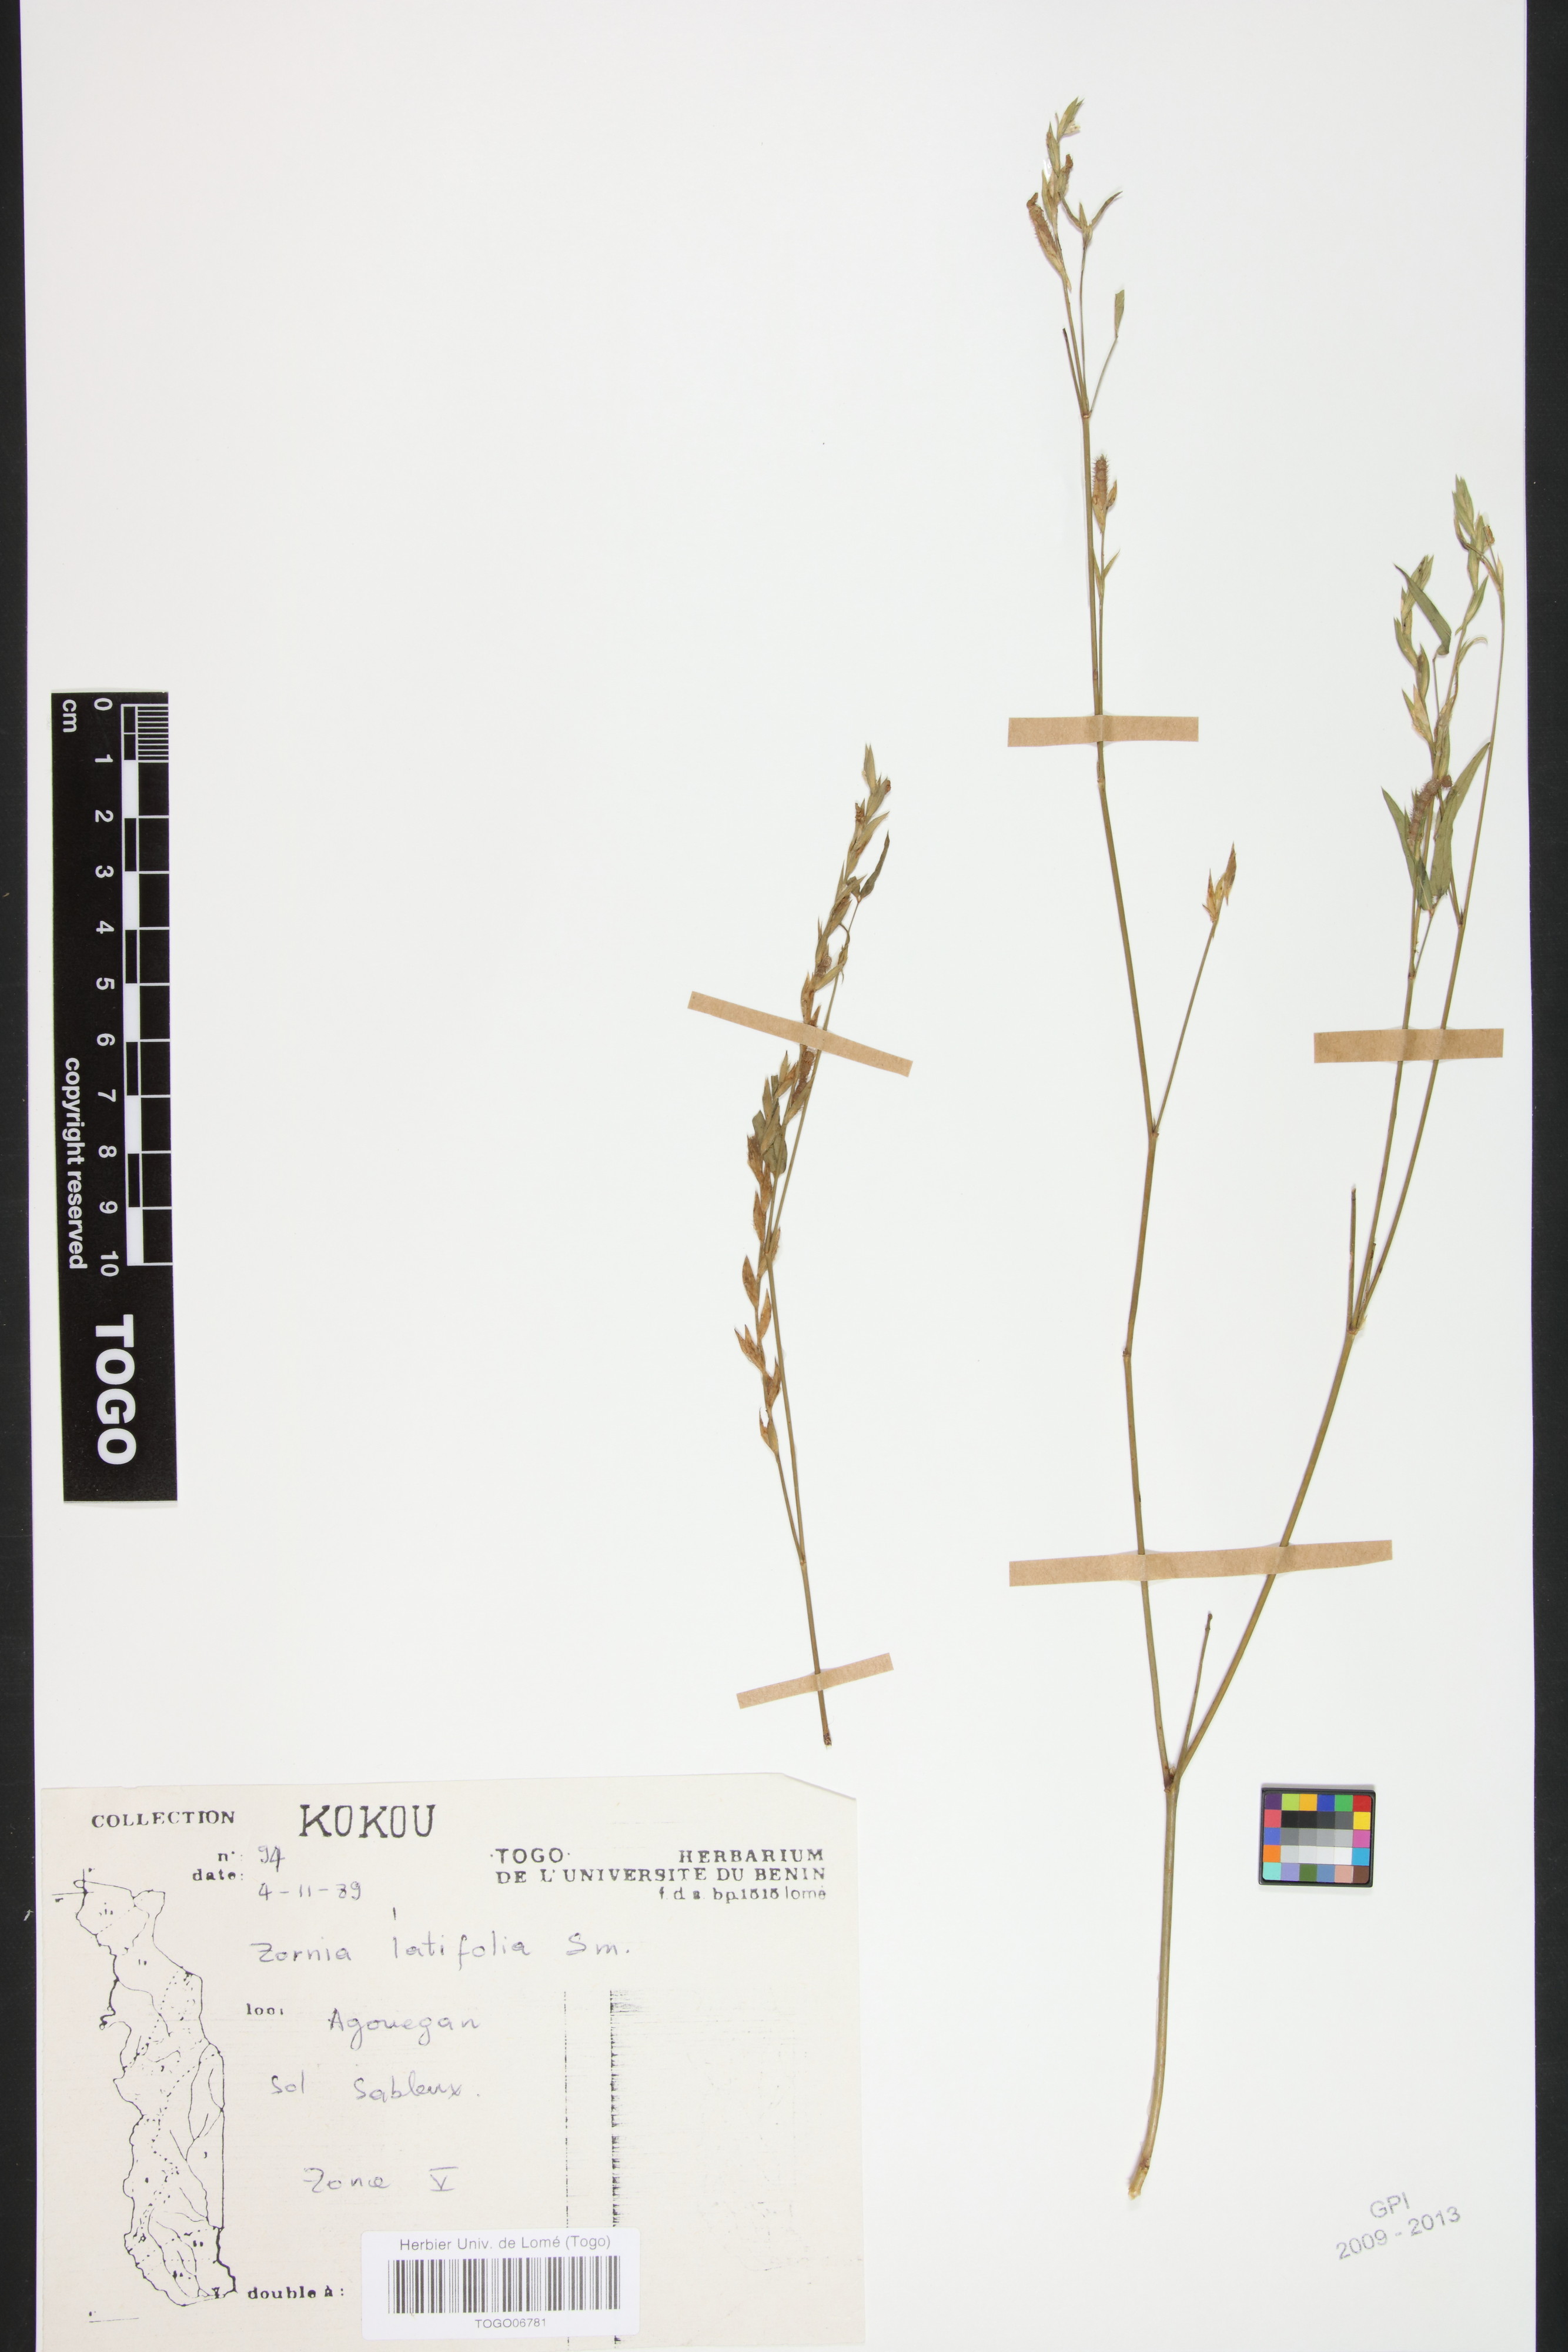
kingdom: Plantae
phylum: Tracheophyta
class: Magnoliopsida
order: Fabales
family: Fabaceae
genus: Zornia
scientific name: Zornia latifolia
